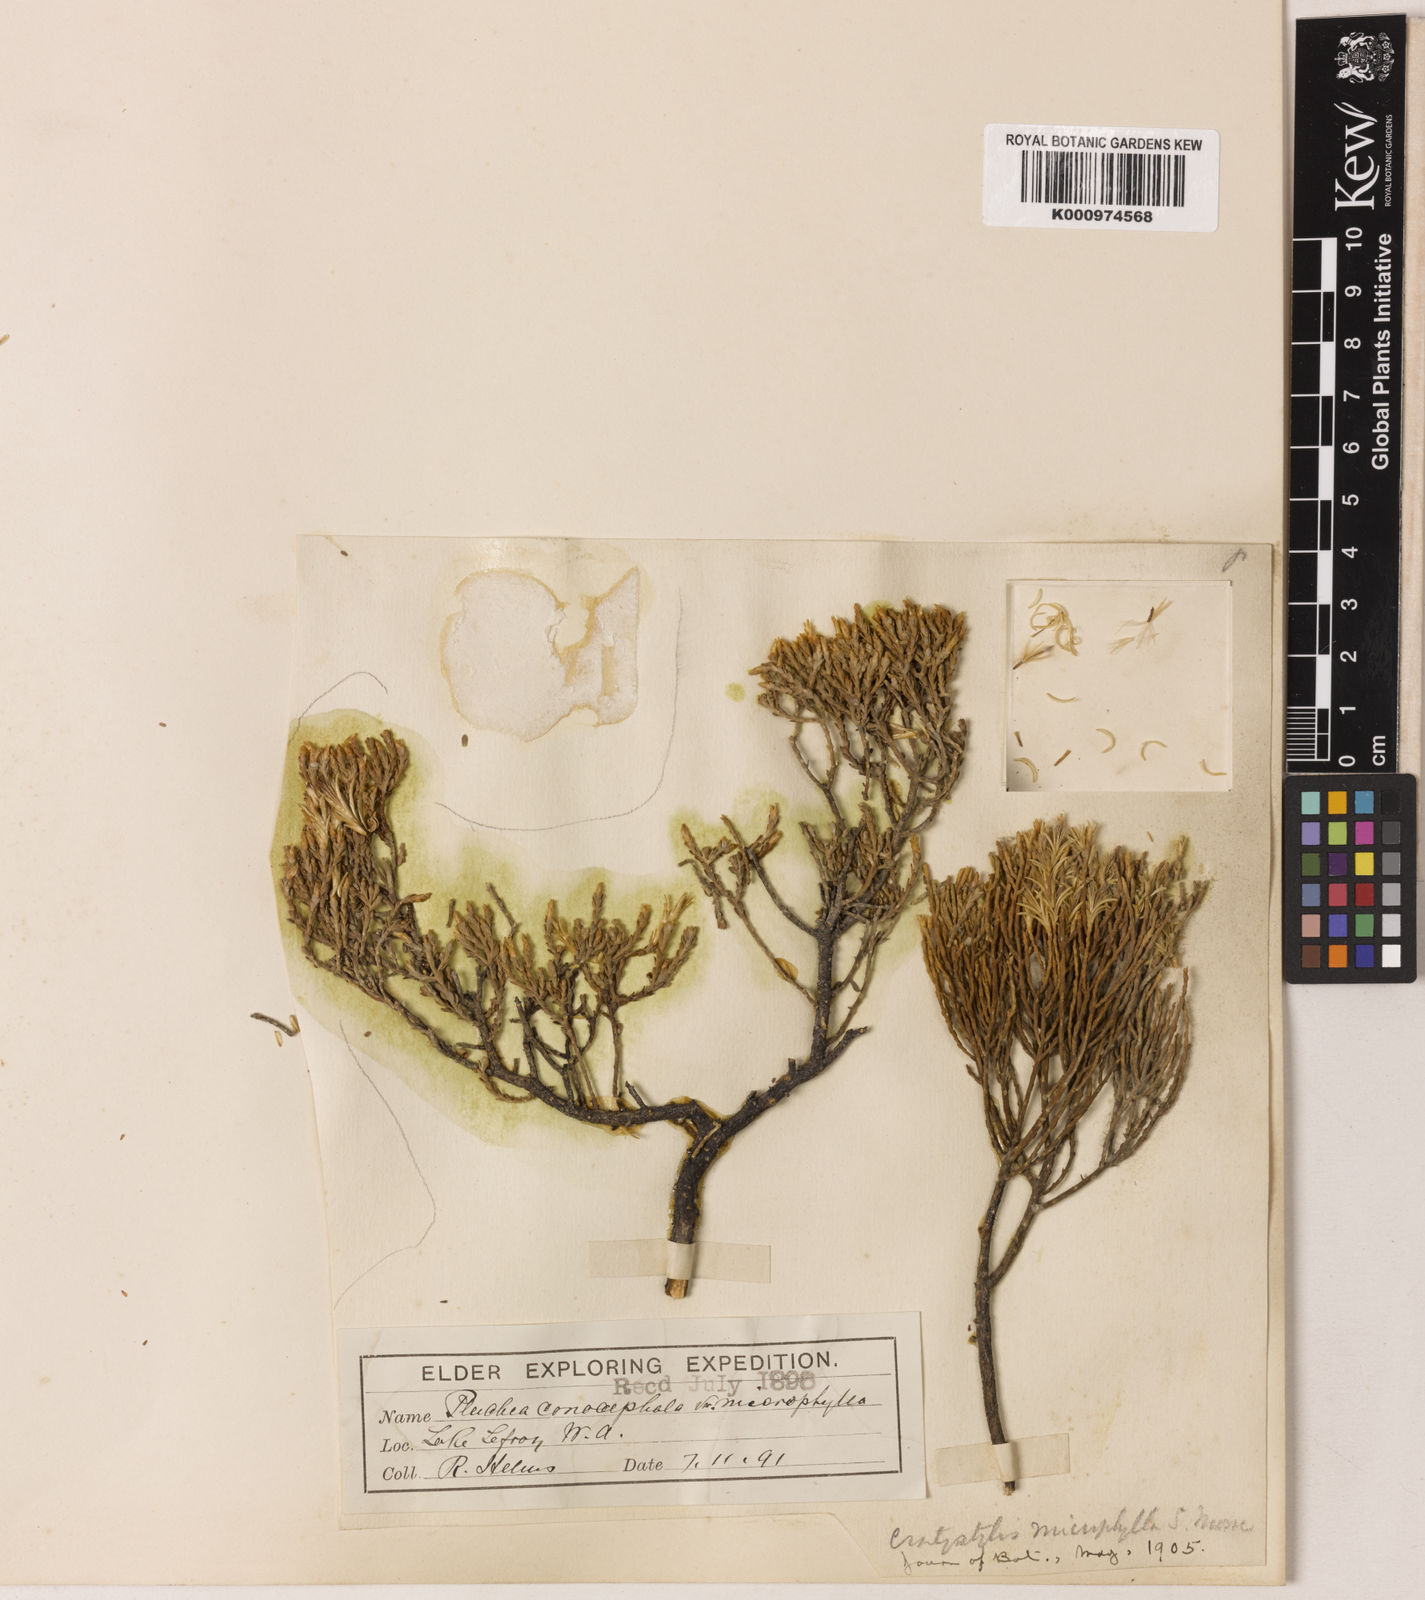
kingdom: Plantae
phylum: Tracheophyta
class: Magnoliopsida
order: Asterales
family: Asteraceae
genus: Cratystylis
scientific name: Cratystylis microphylla
